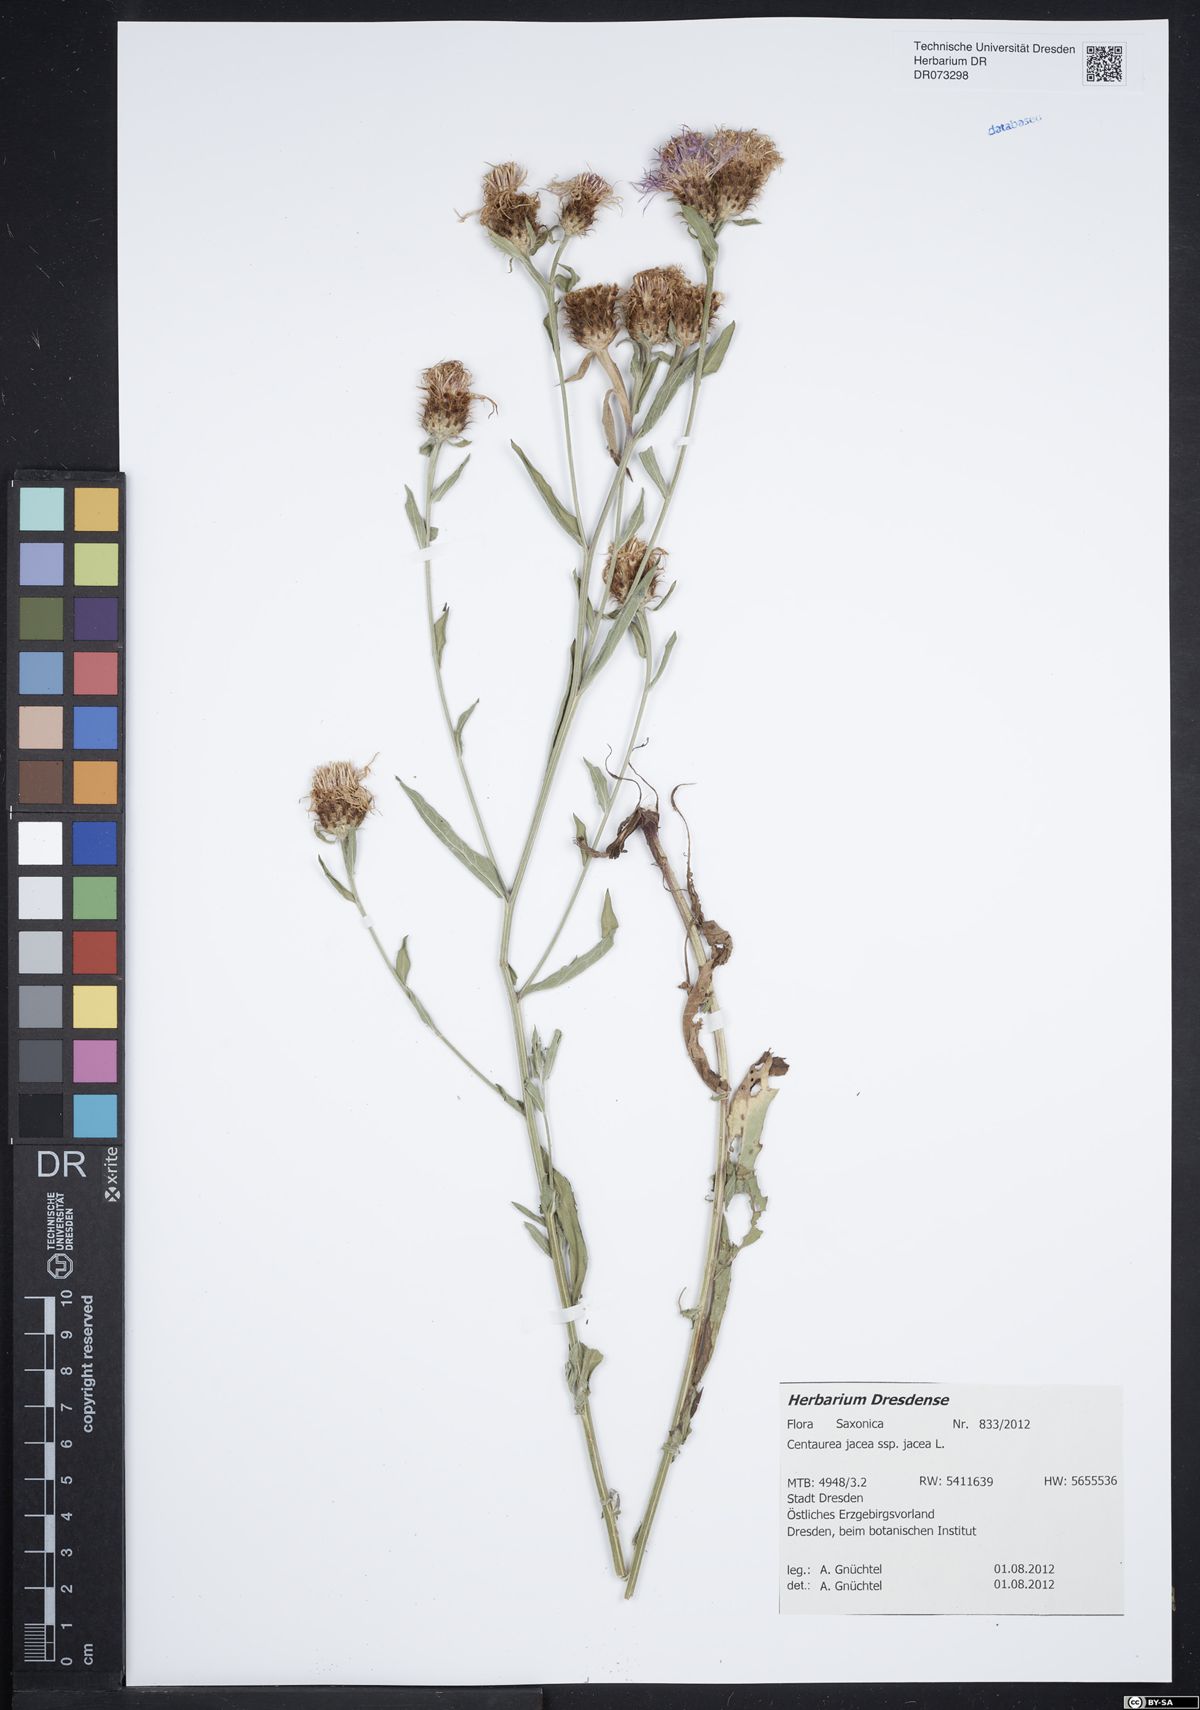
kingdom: Plantae
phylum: Tracheophyta
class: Magnoliopsida
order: Asterales
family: Asteraceae
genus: Centaurea
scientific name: Centaurea jacea
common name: Brown knapweed
